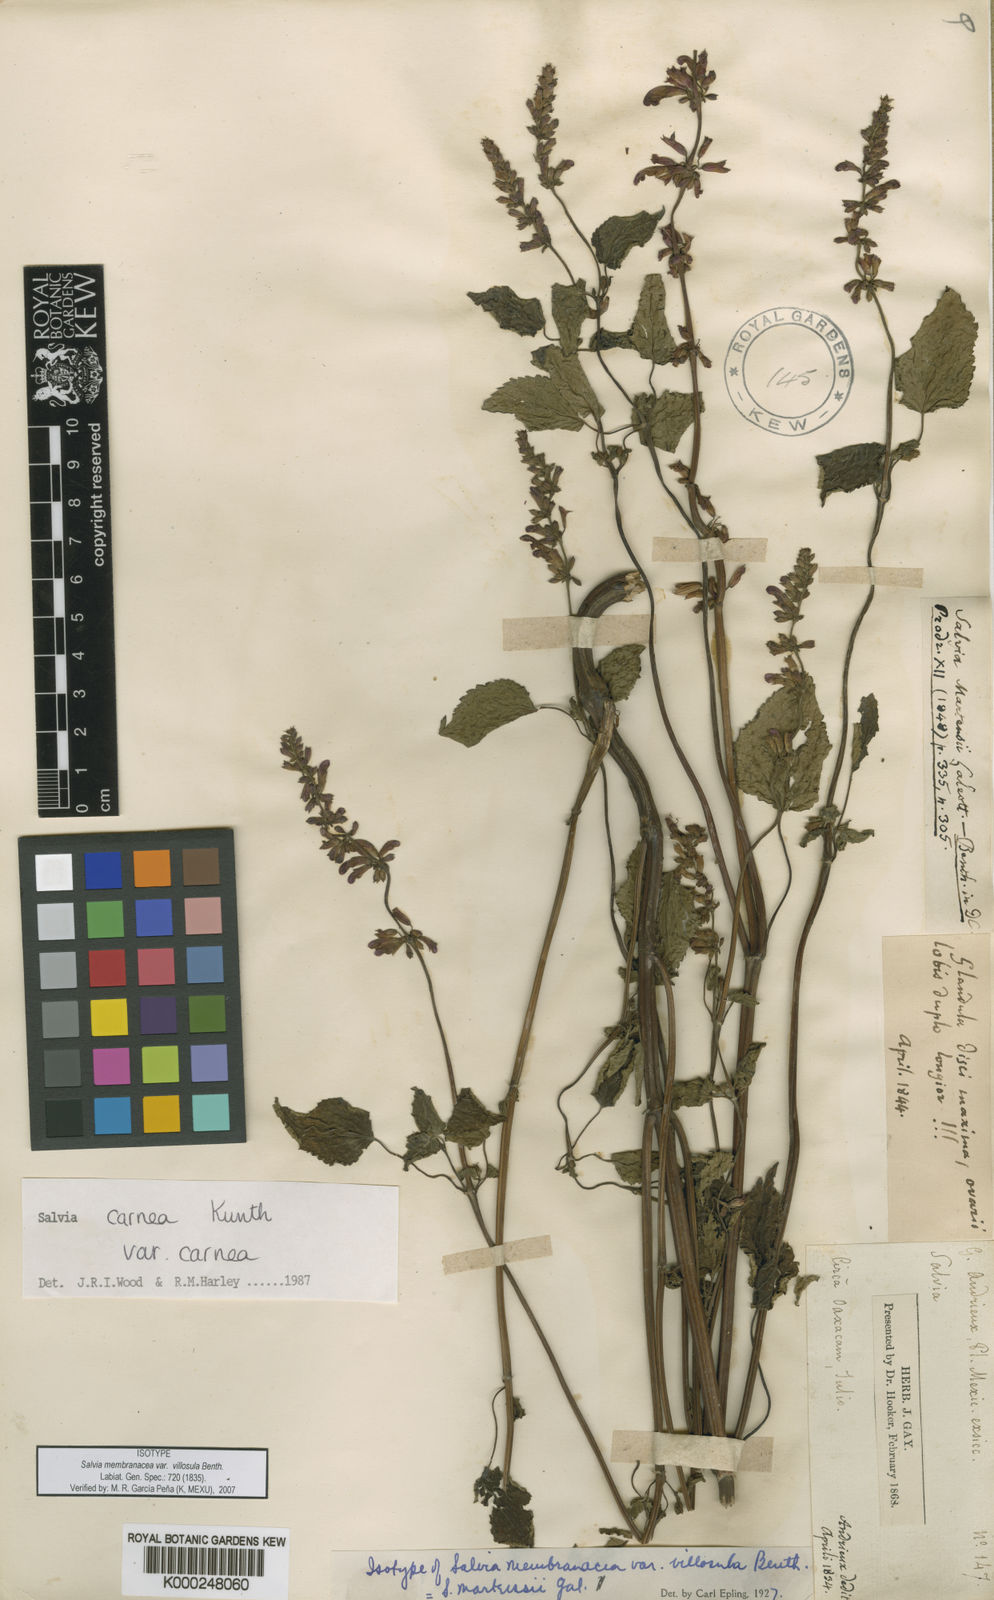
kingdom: Plantae
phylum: Tracheophyta
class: Magnoliopsida
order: Lamiales
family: Lamiaceae
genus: Salvia
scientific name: Salvia
